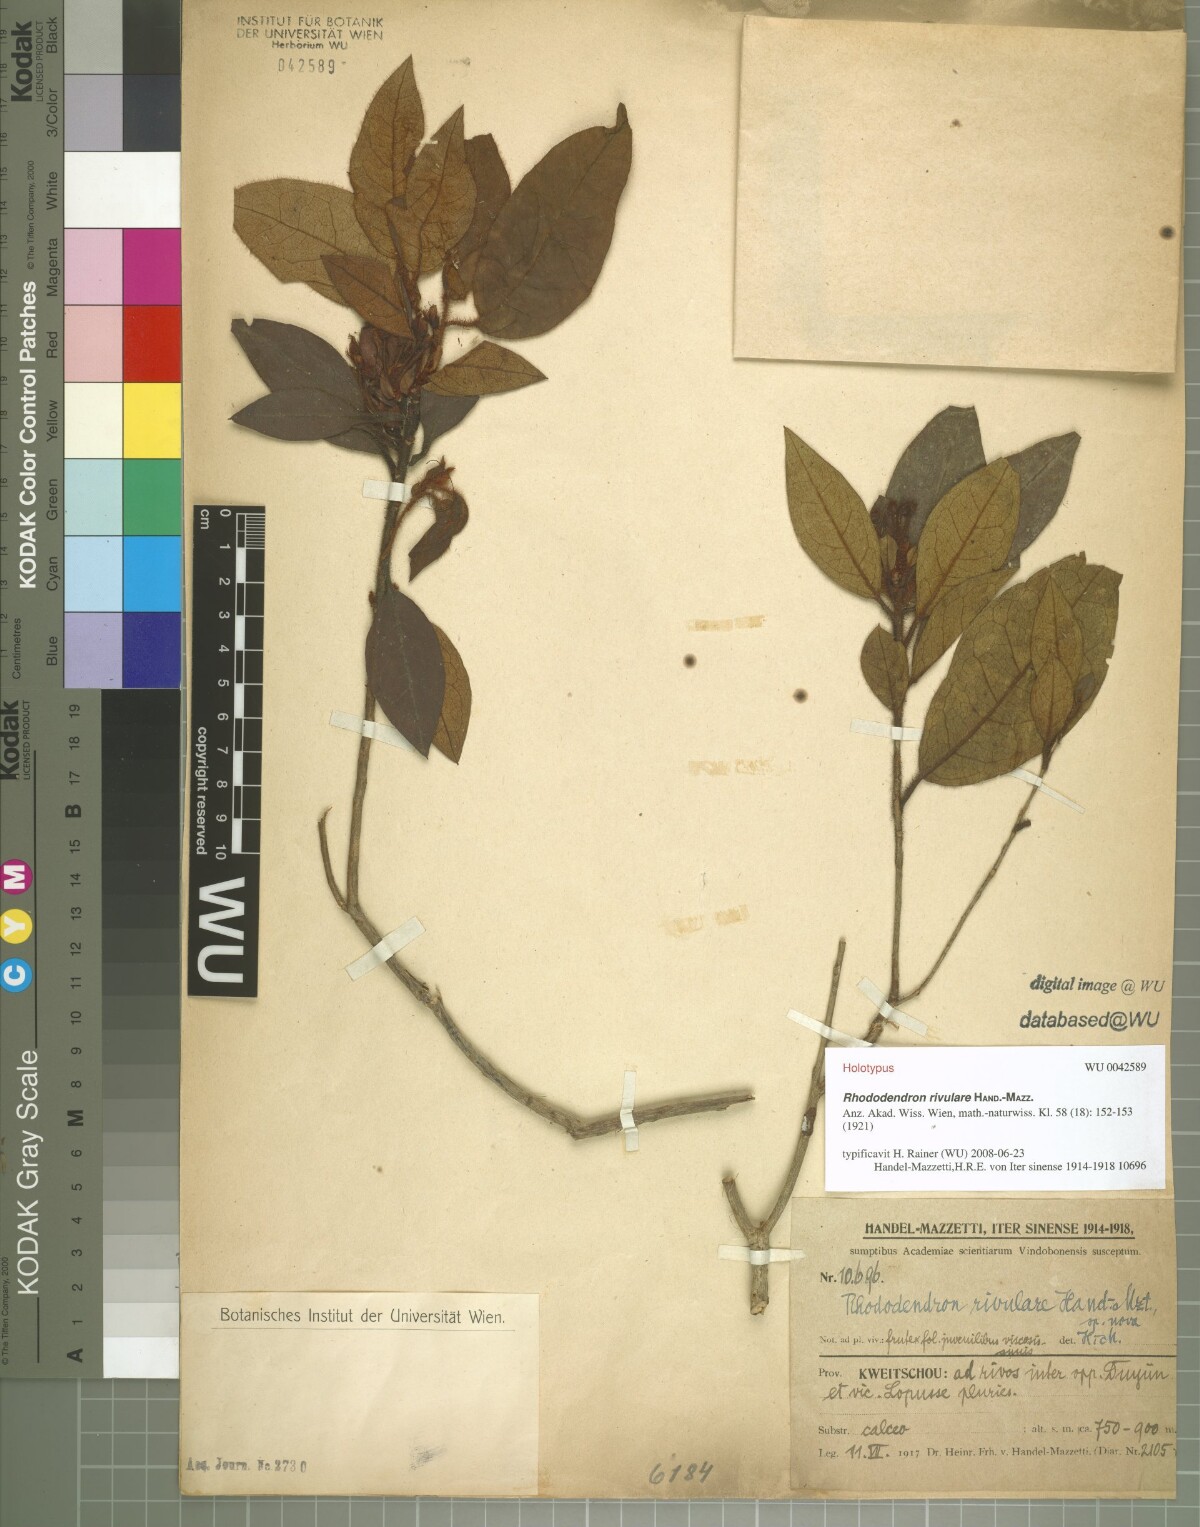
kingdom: Plantae
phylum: Tracheophyta
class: Magnoliopsida
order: Ericales
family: Ericaceae
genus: Rhododendron
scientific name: Rhododendron rivulare
